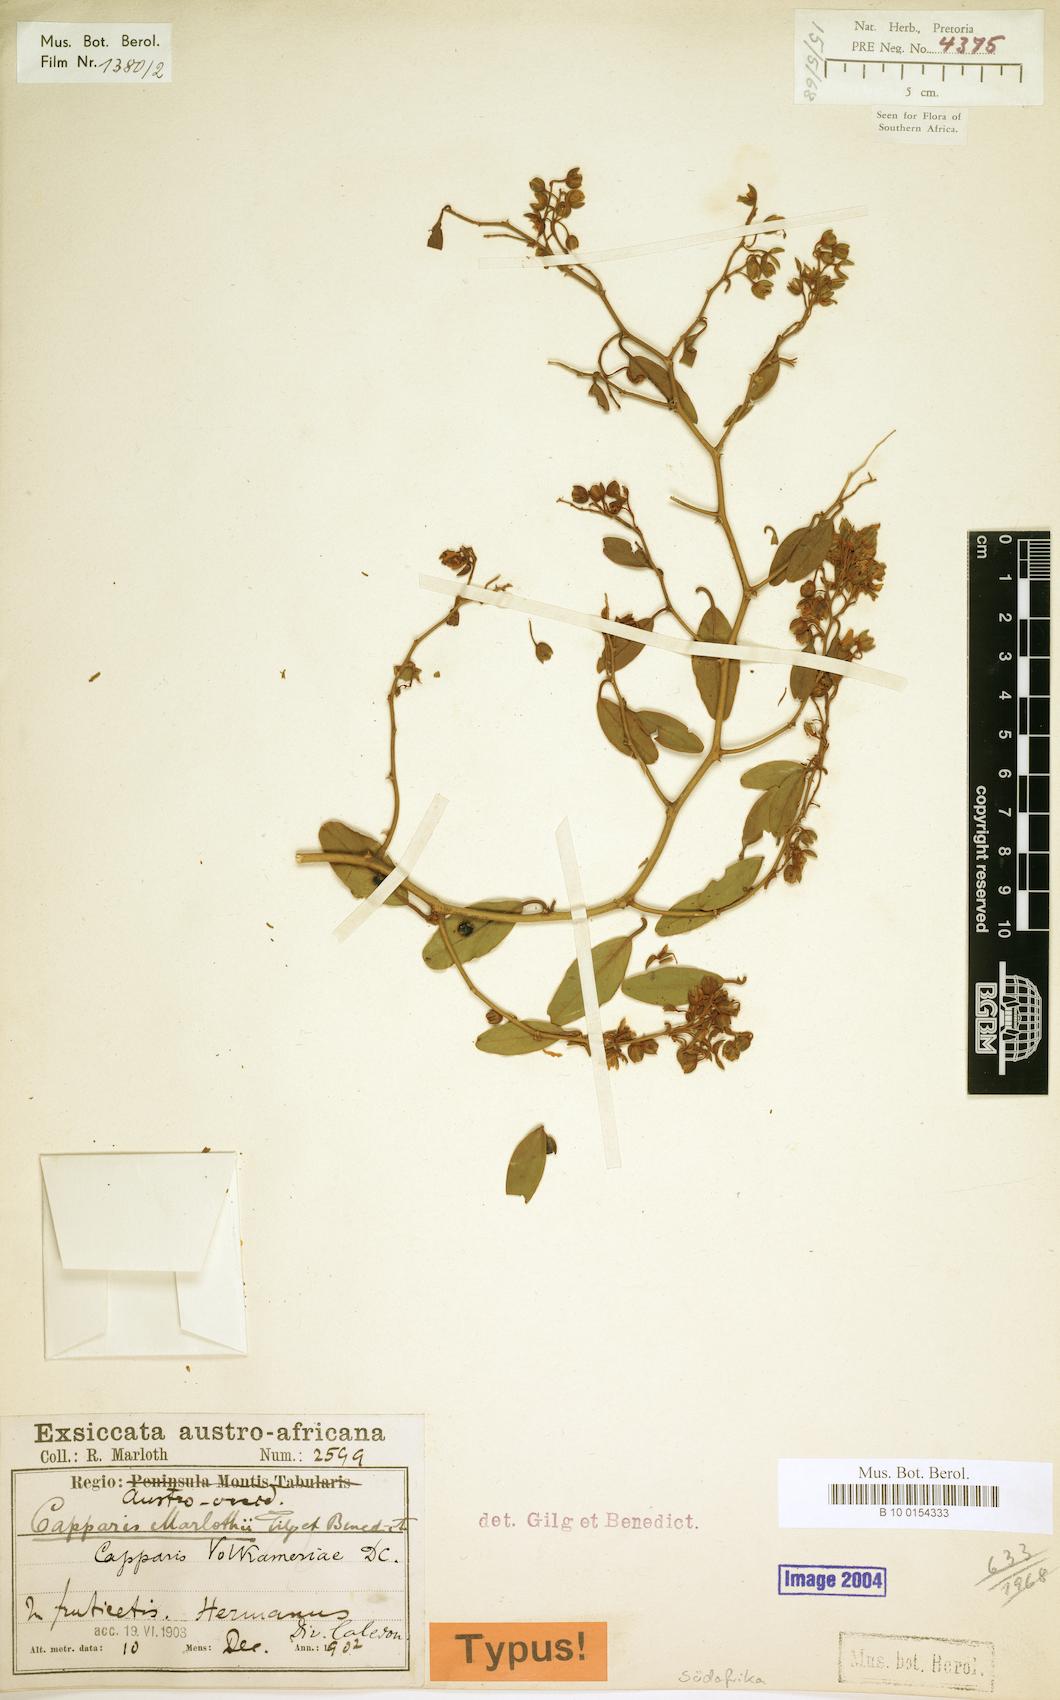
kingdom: Plantae
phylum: Tracheophyta
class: Magnoliopsida
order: Brassicales
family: Capparaceae
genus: Capparis
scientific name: Capparis fascicularis
